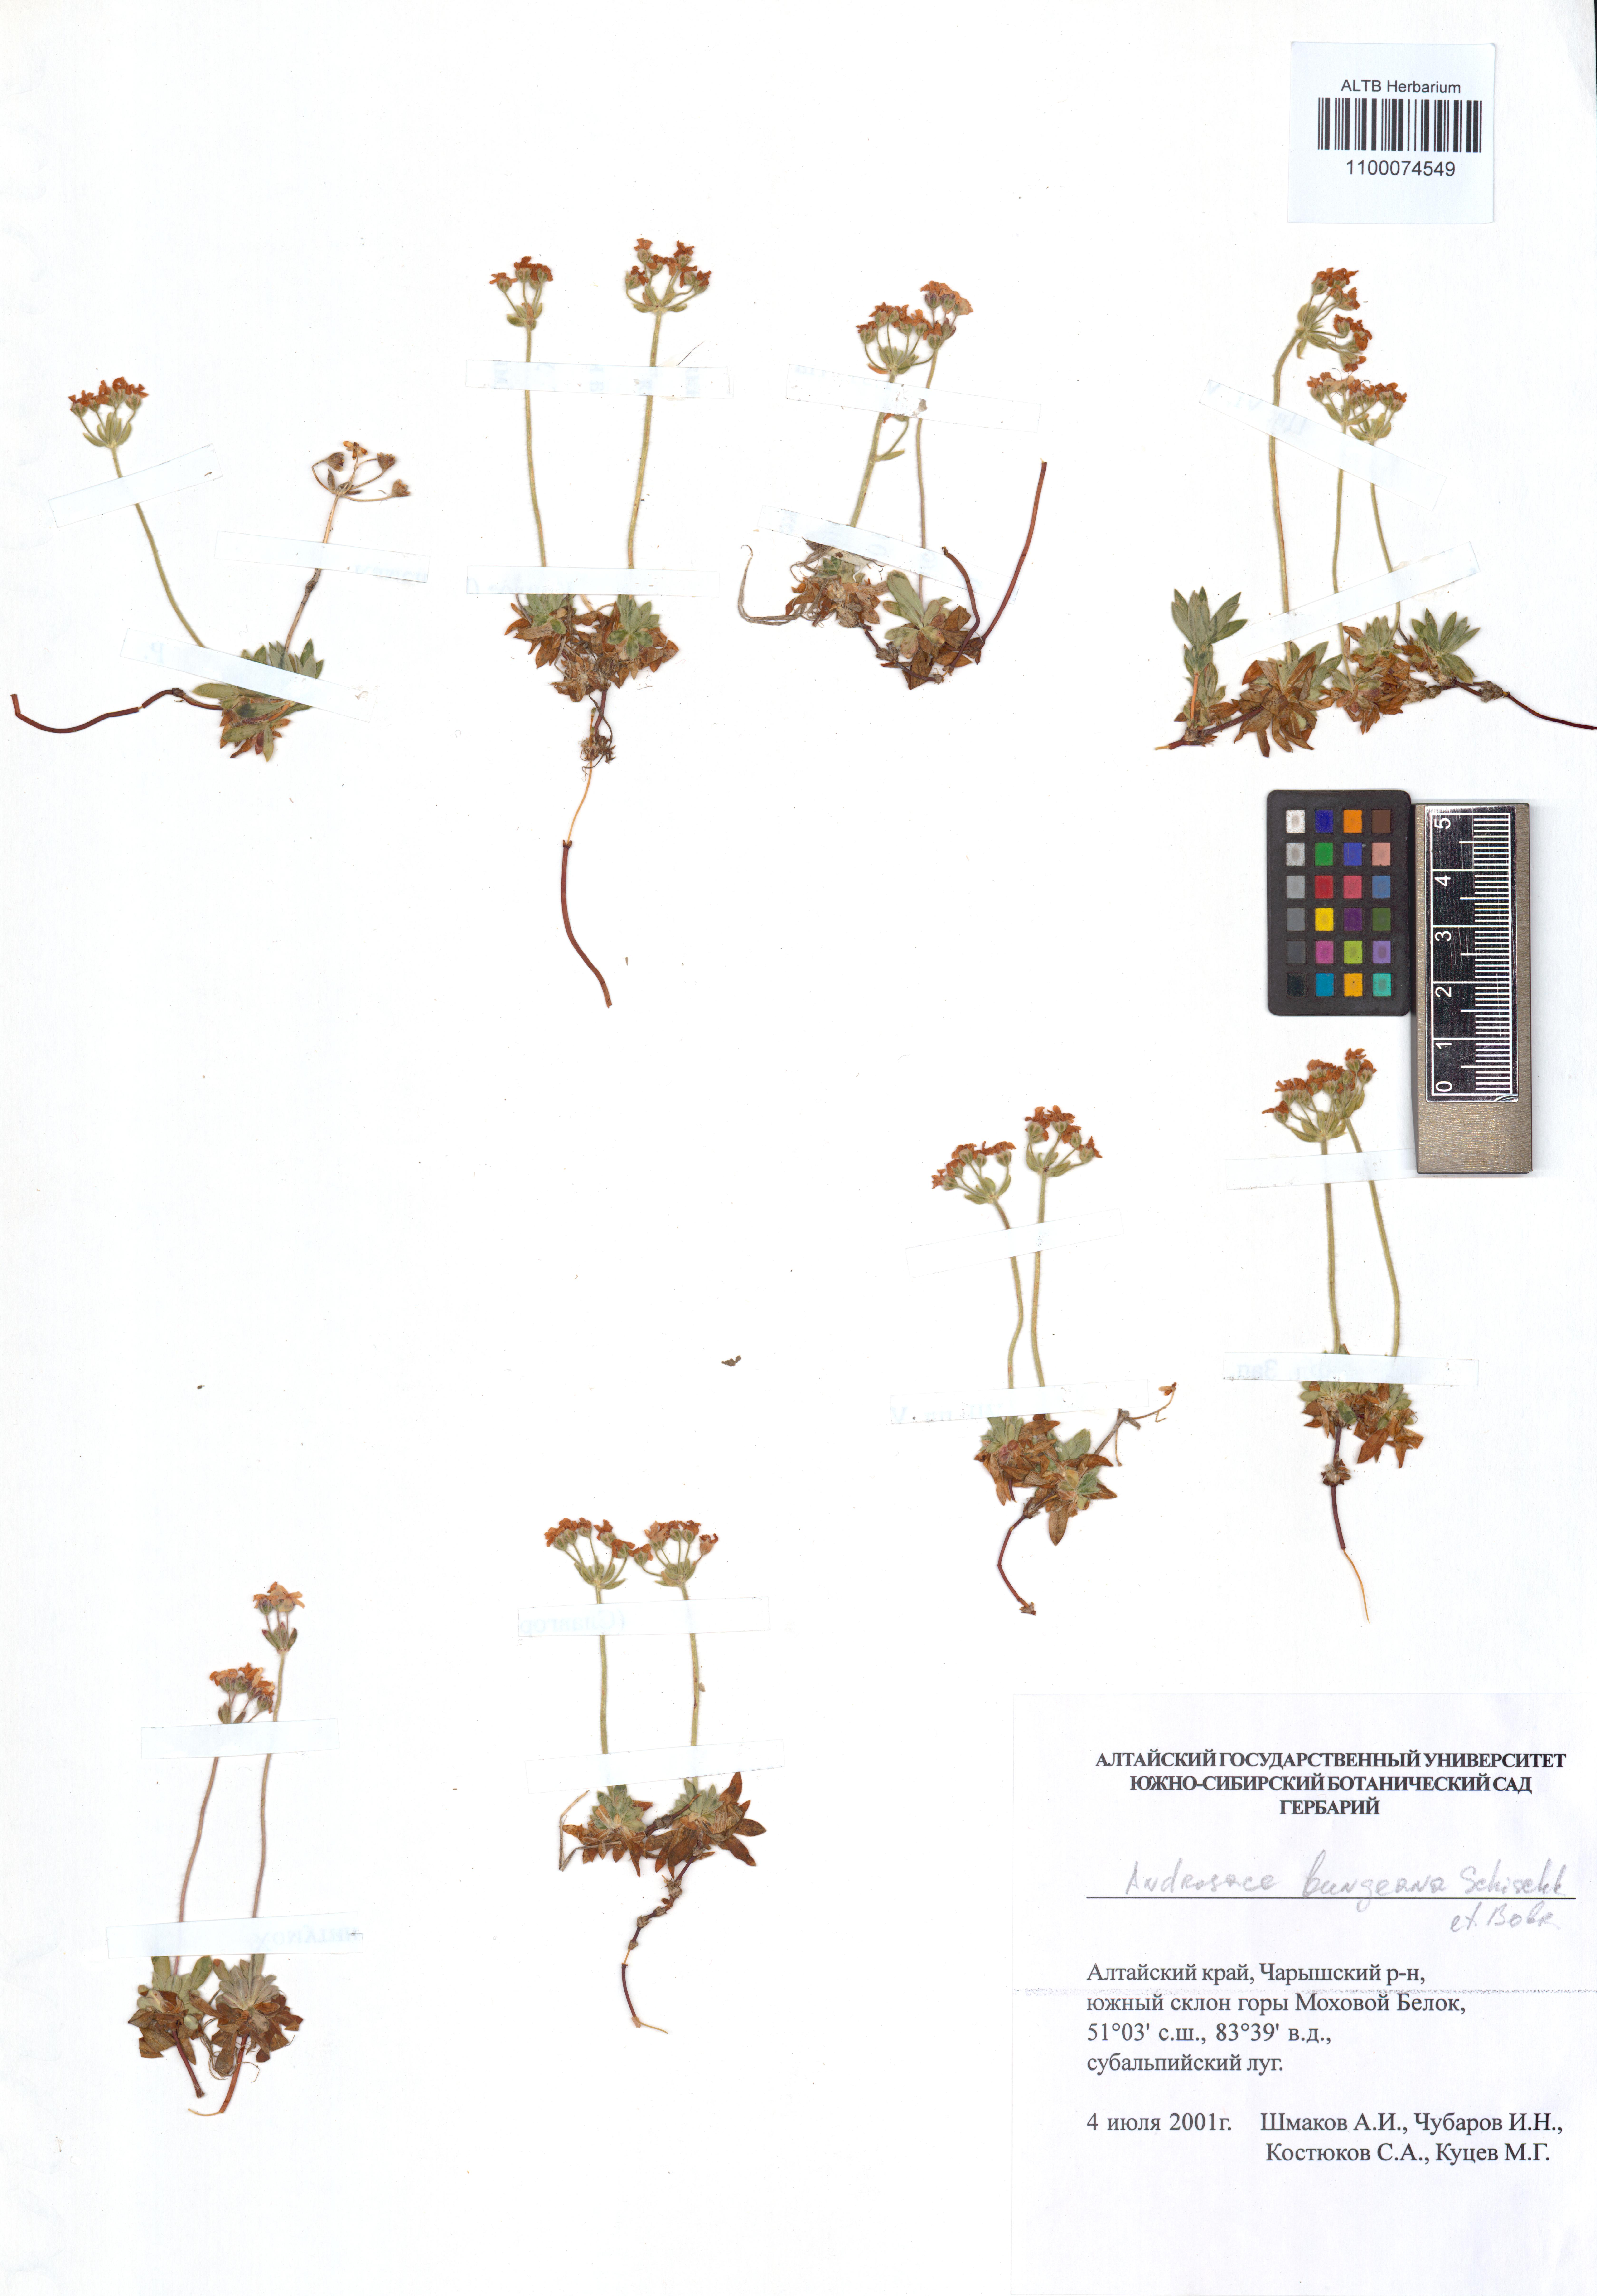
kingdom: Plantae
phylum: Tracheophyta
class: Magnoliopsida
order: Ericales
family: Primulaceae
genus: Androsace
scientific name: Androsace bungeana
